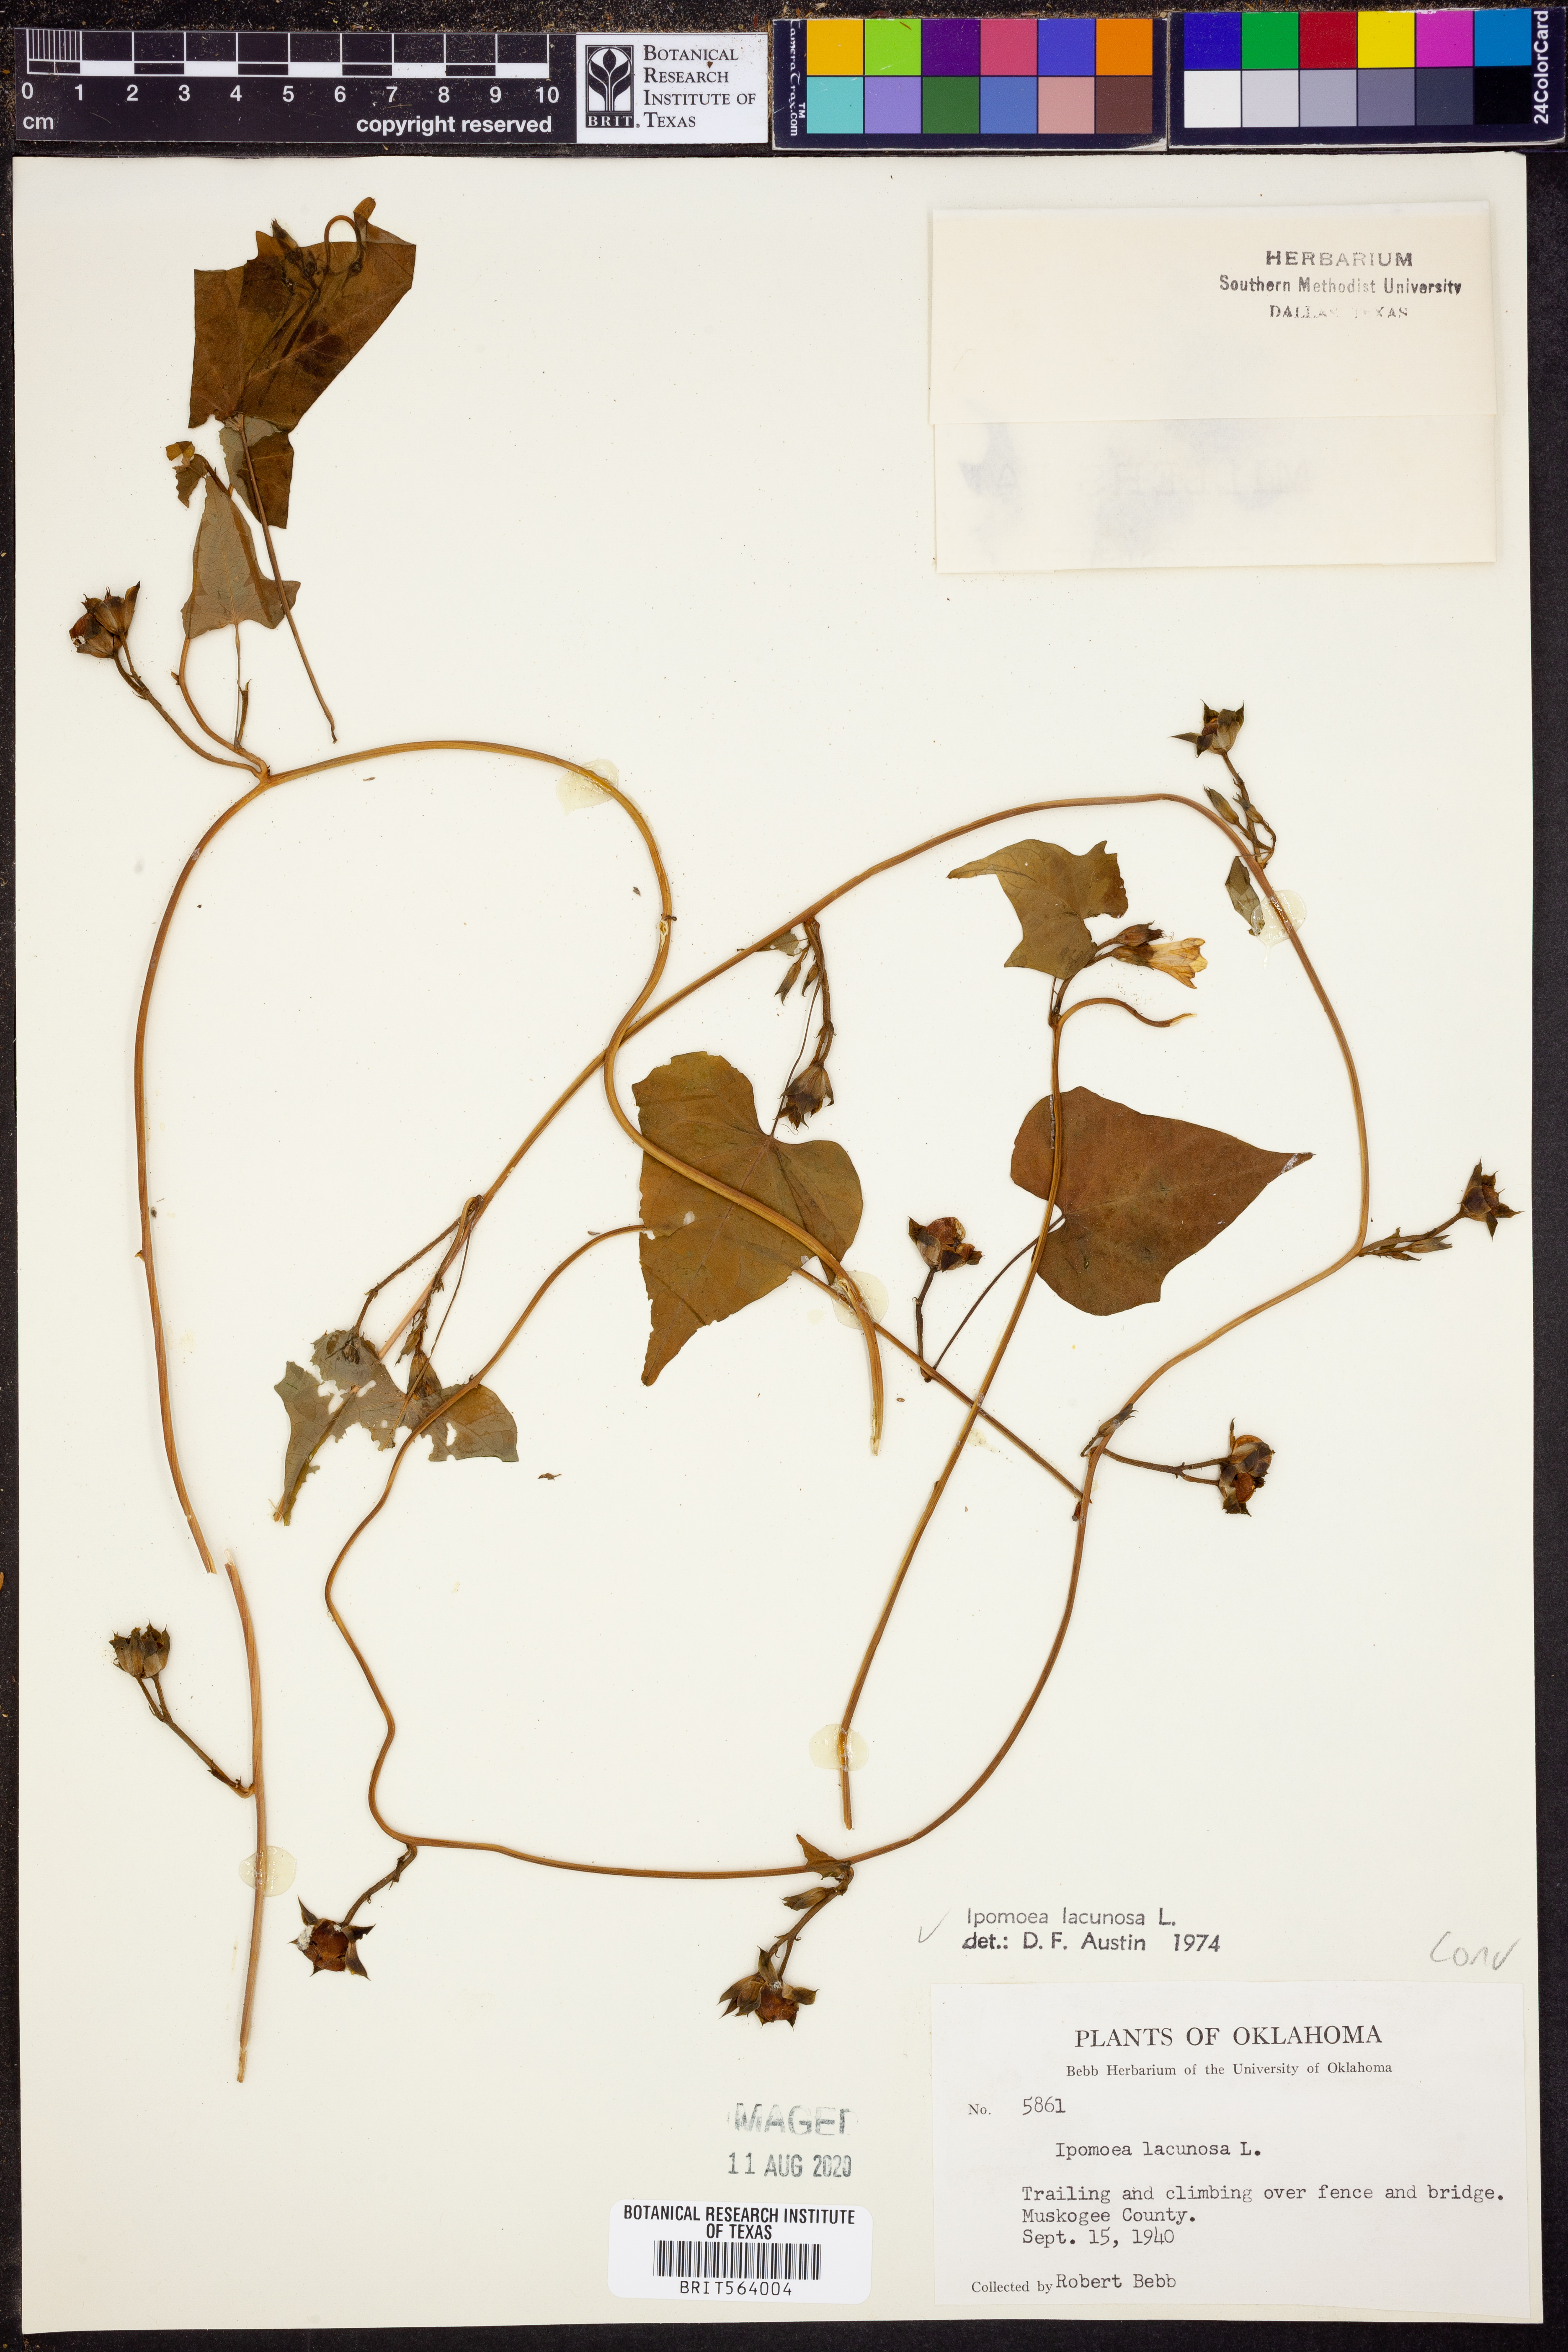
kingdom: Plantae
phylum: Tracheophyta
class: Magnoliopsida
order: Solanales
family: Convolvulaceae
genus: Ipomoea
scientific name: Ipomoea lacunosa
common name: White morning-glory
